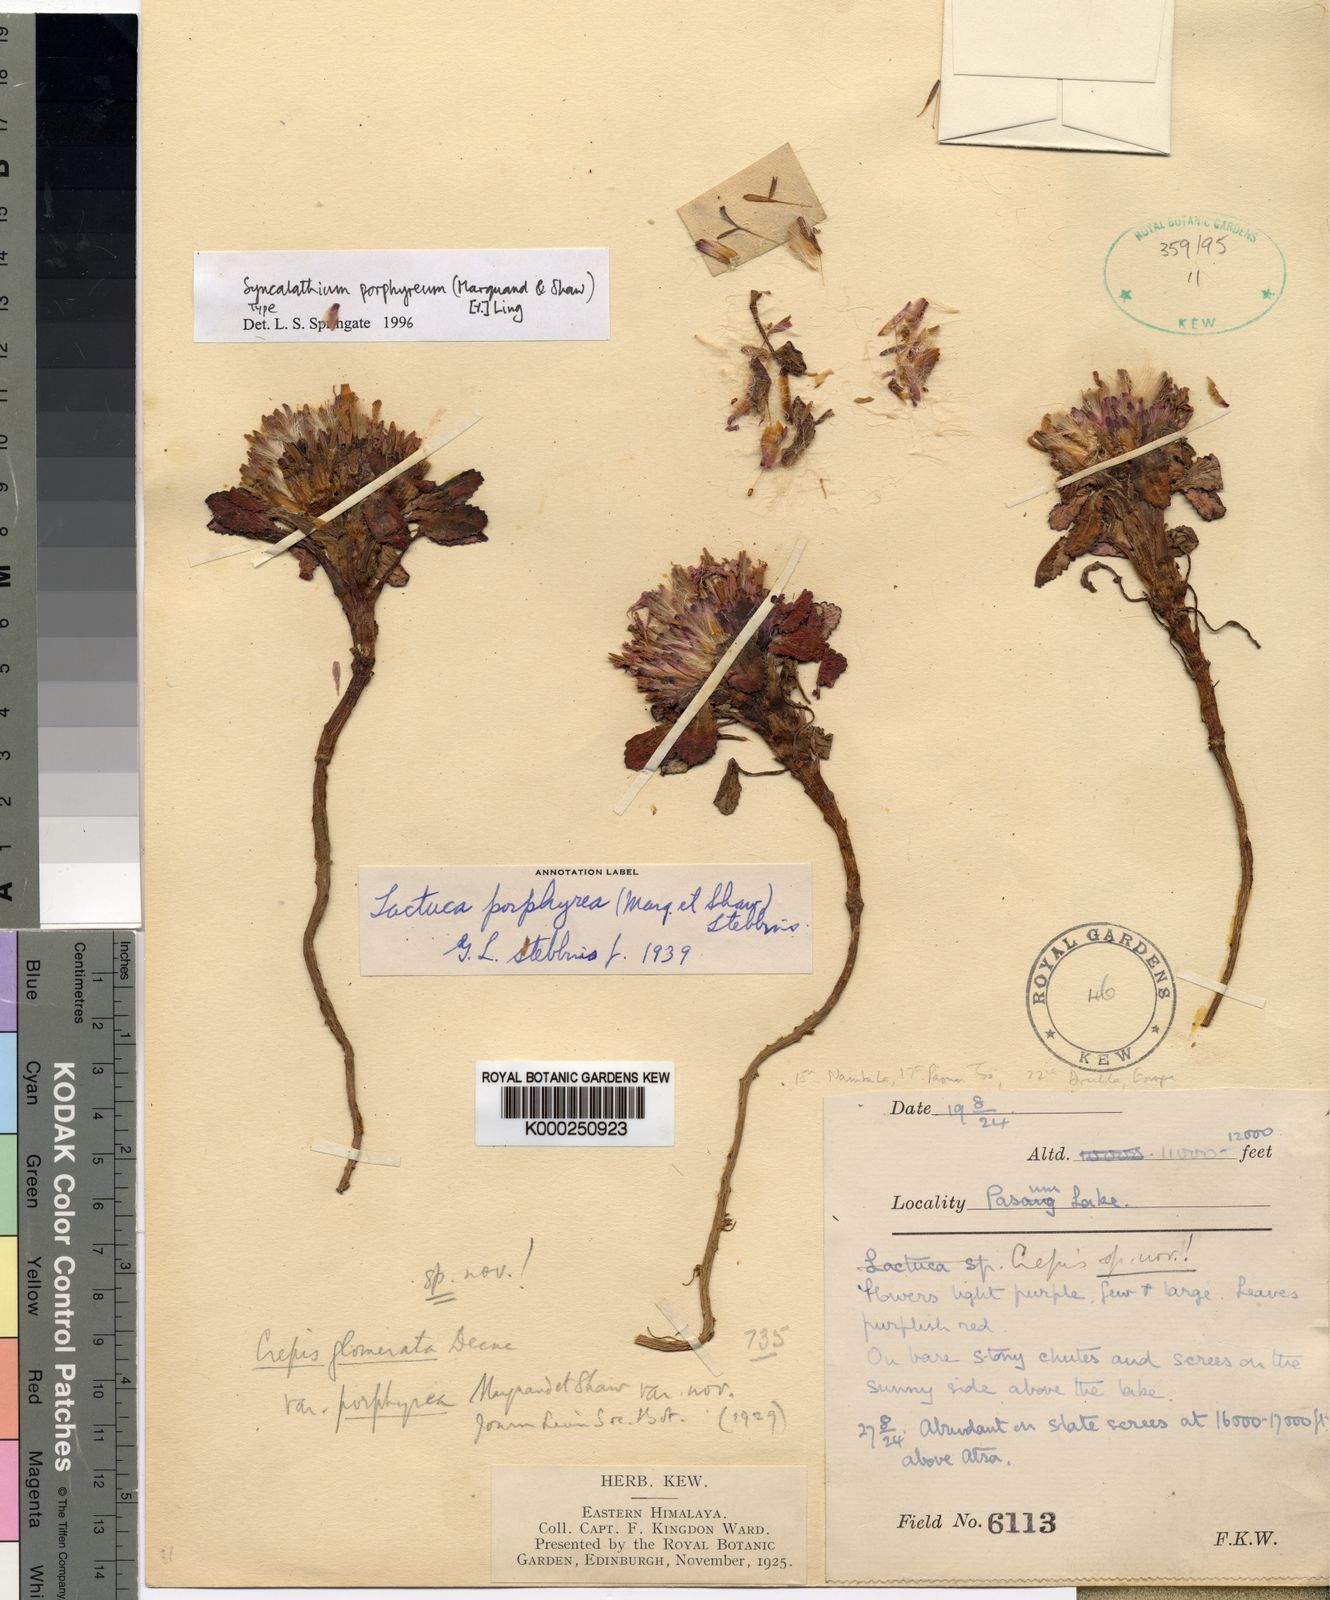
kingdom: Plantae
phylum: Tracheophyta
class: Magnoliopsida
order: Asterales
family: Asteraceae
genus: Soroseris
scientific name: Soroseris glomerata
